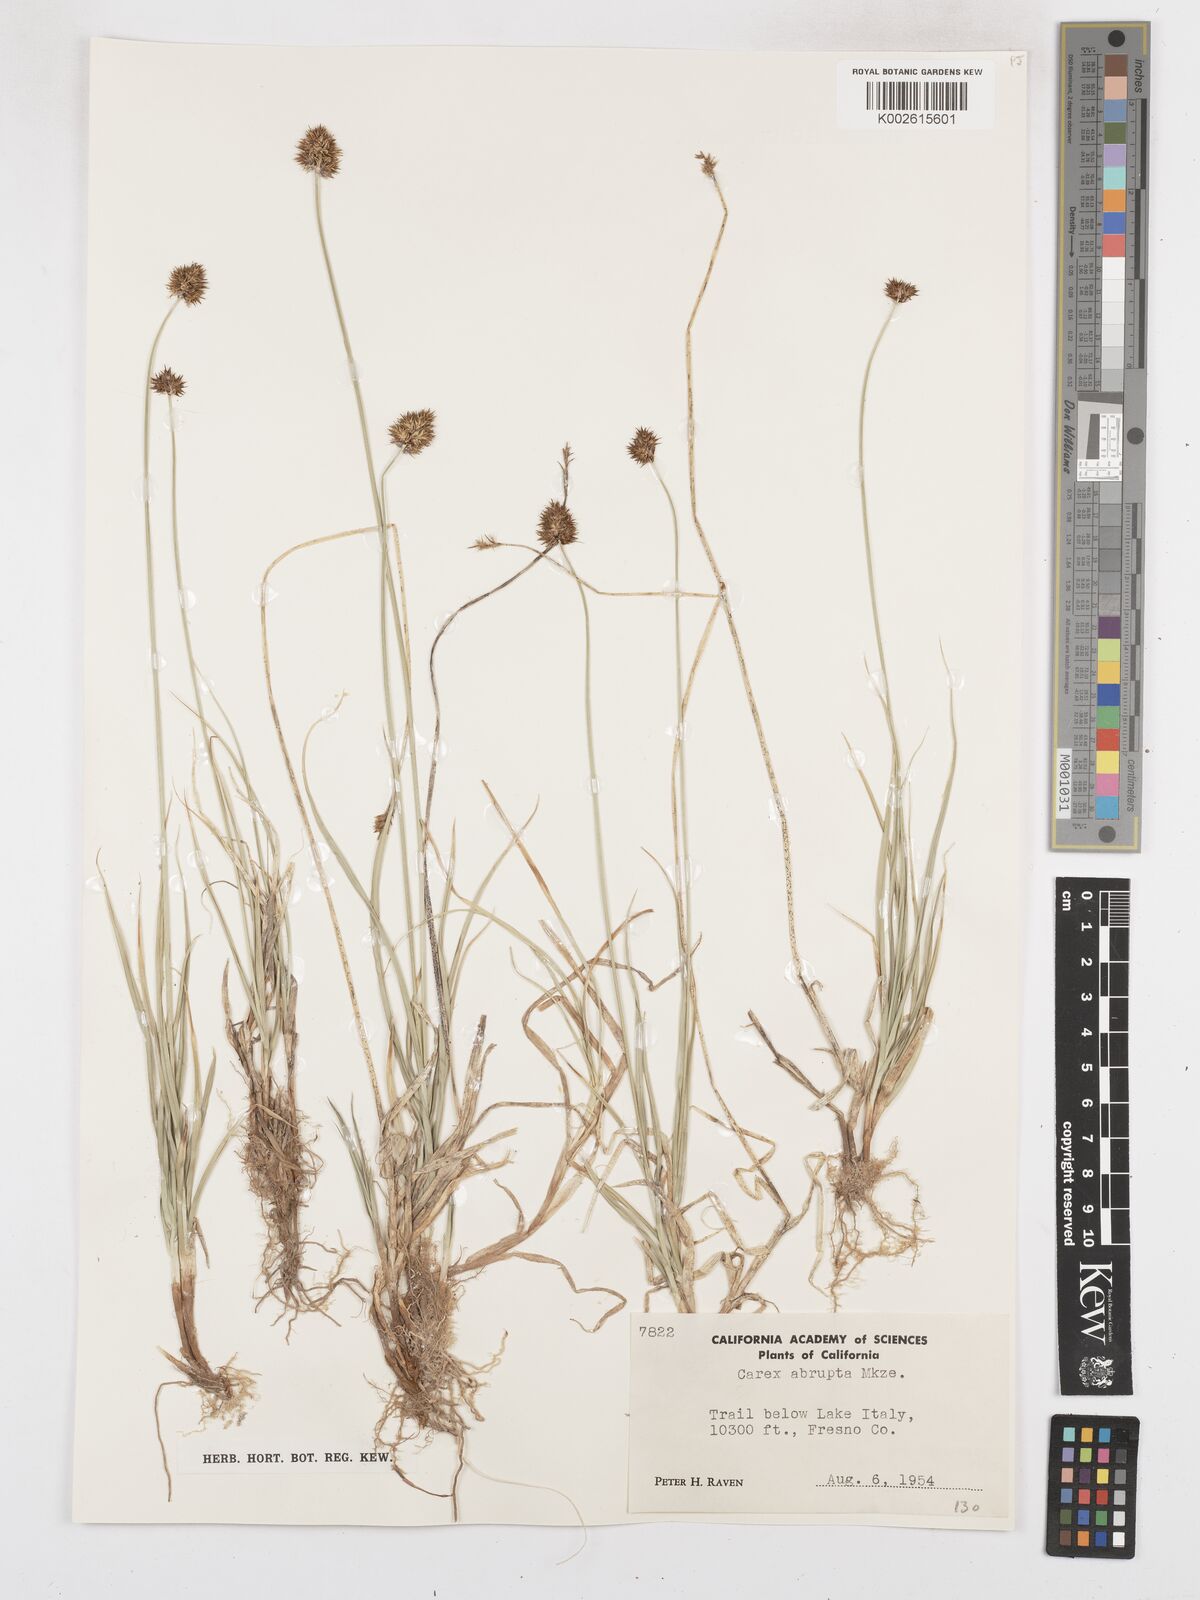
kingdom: Plantae
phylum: Tracheophyta
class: Liliopsida
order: Poales
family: Cyperaceae
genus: Carex
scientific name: Carex abrupta
